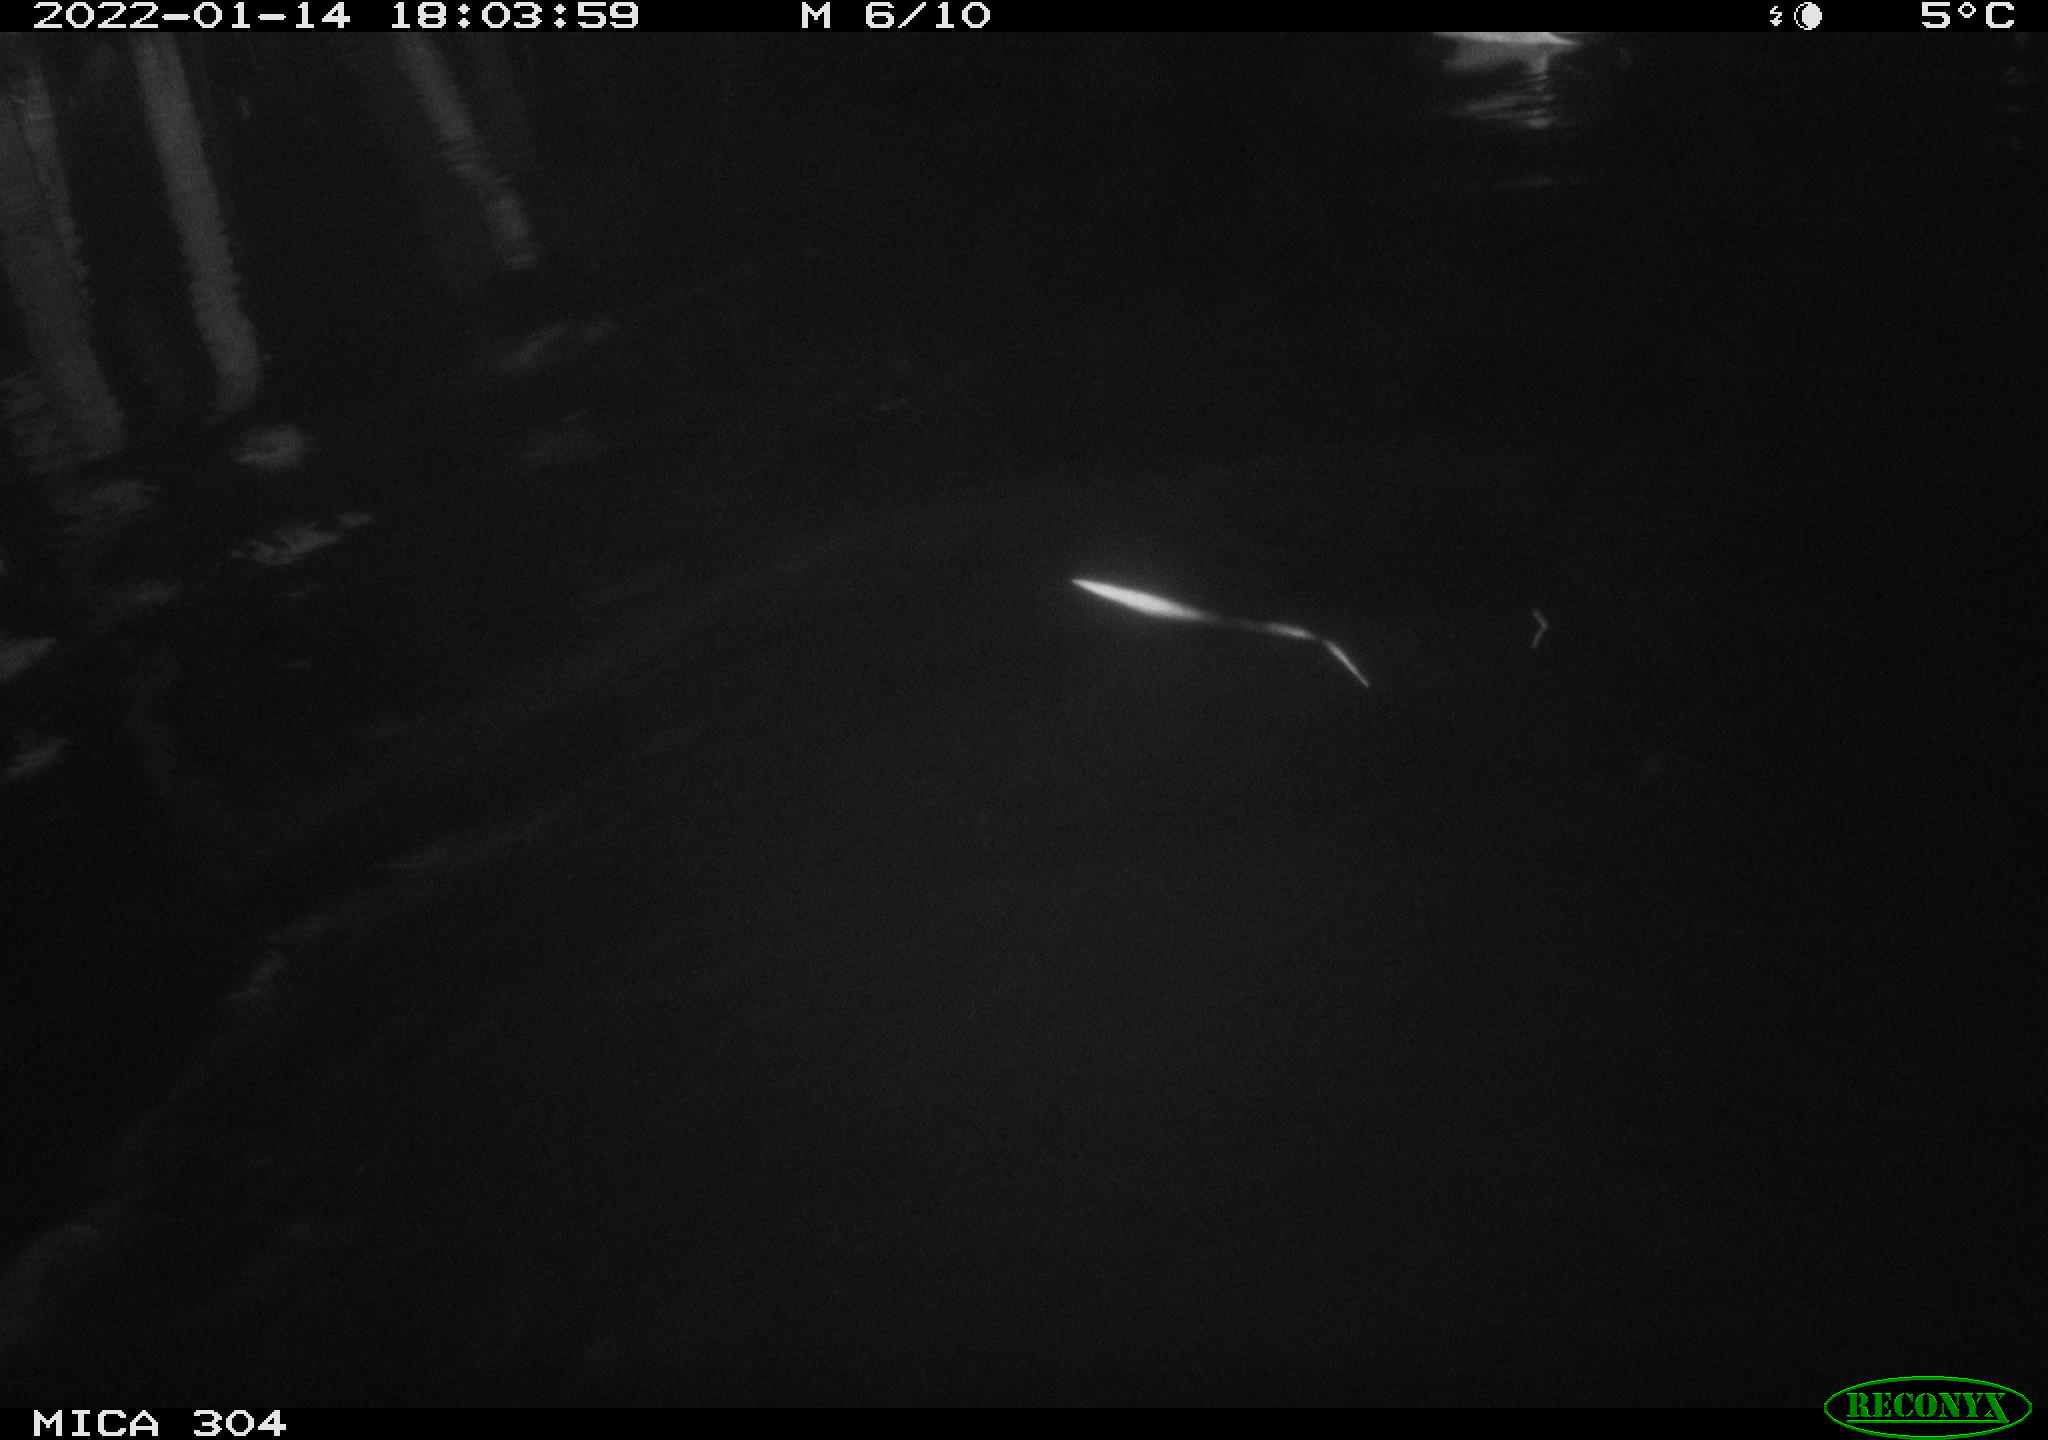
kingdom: Animalia
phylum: Chordata
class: Aves
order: Anseriformes
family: Anatidae
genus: Anas
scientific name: Anas
